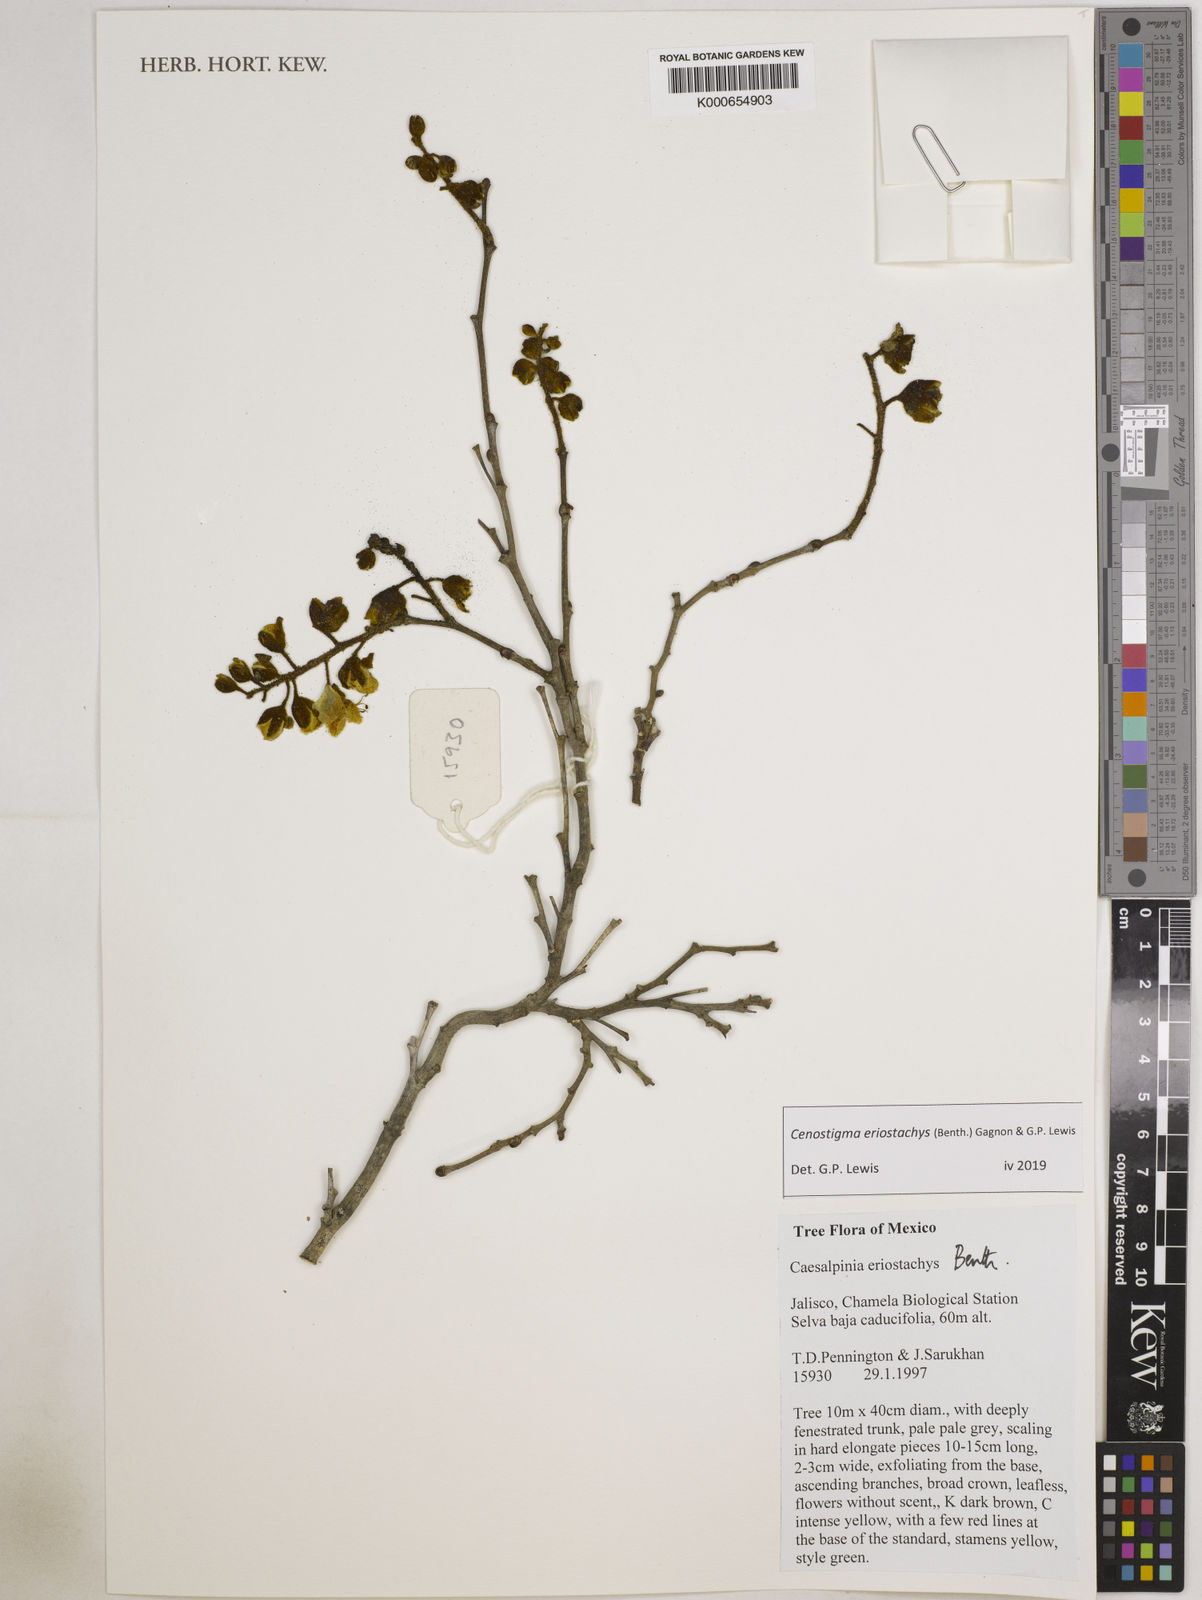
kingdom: Plantae
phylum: Tracheophyta
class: Magnoliopsida
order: Fabales
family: Fabaceae
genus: Cenostigma
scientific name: Cenostigma eriostachys
